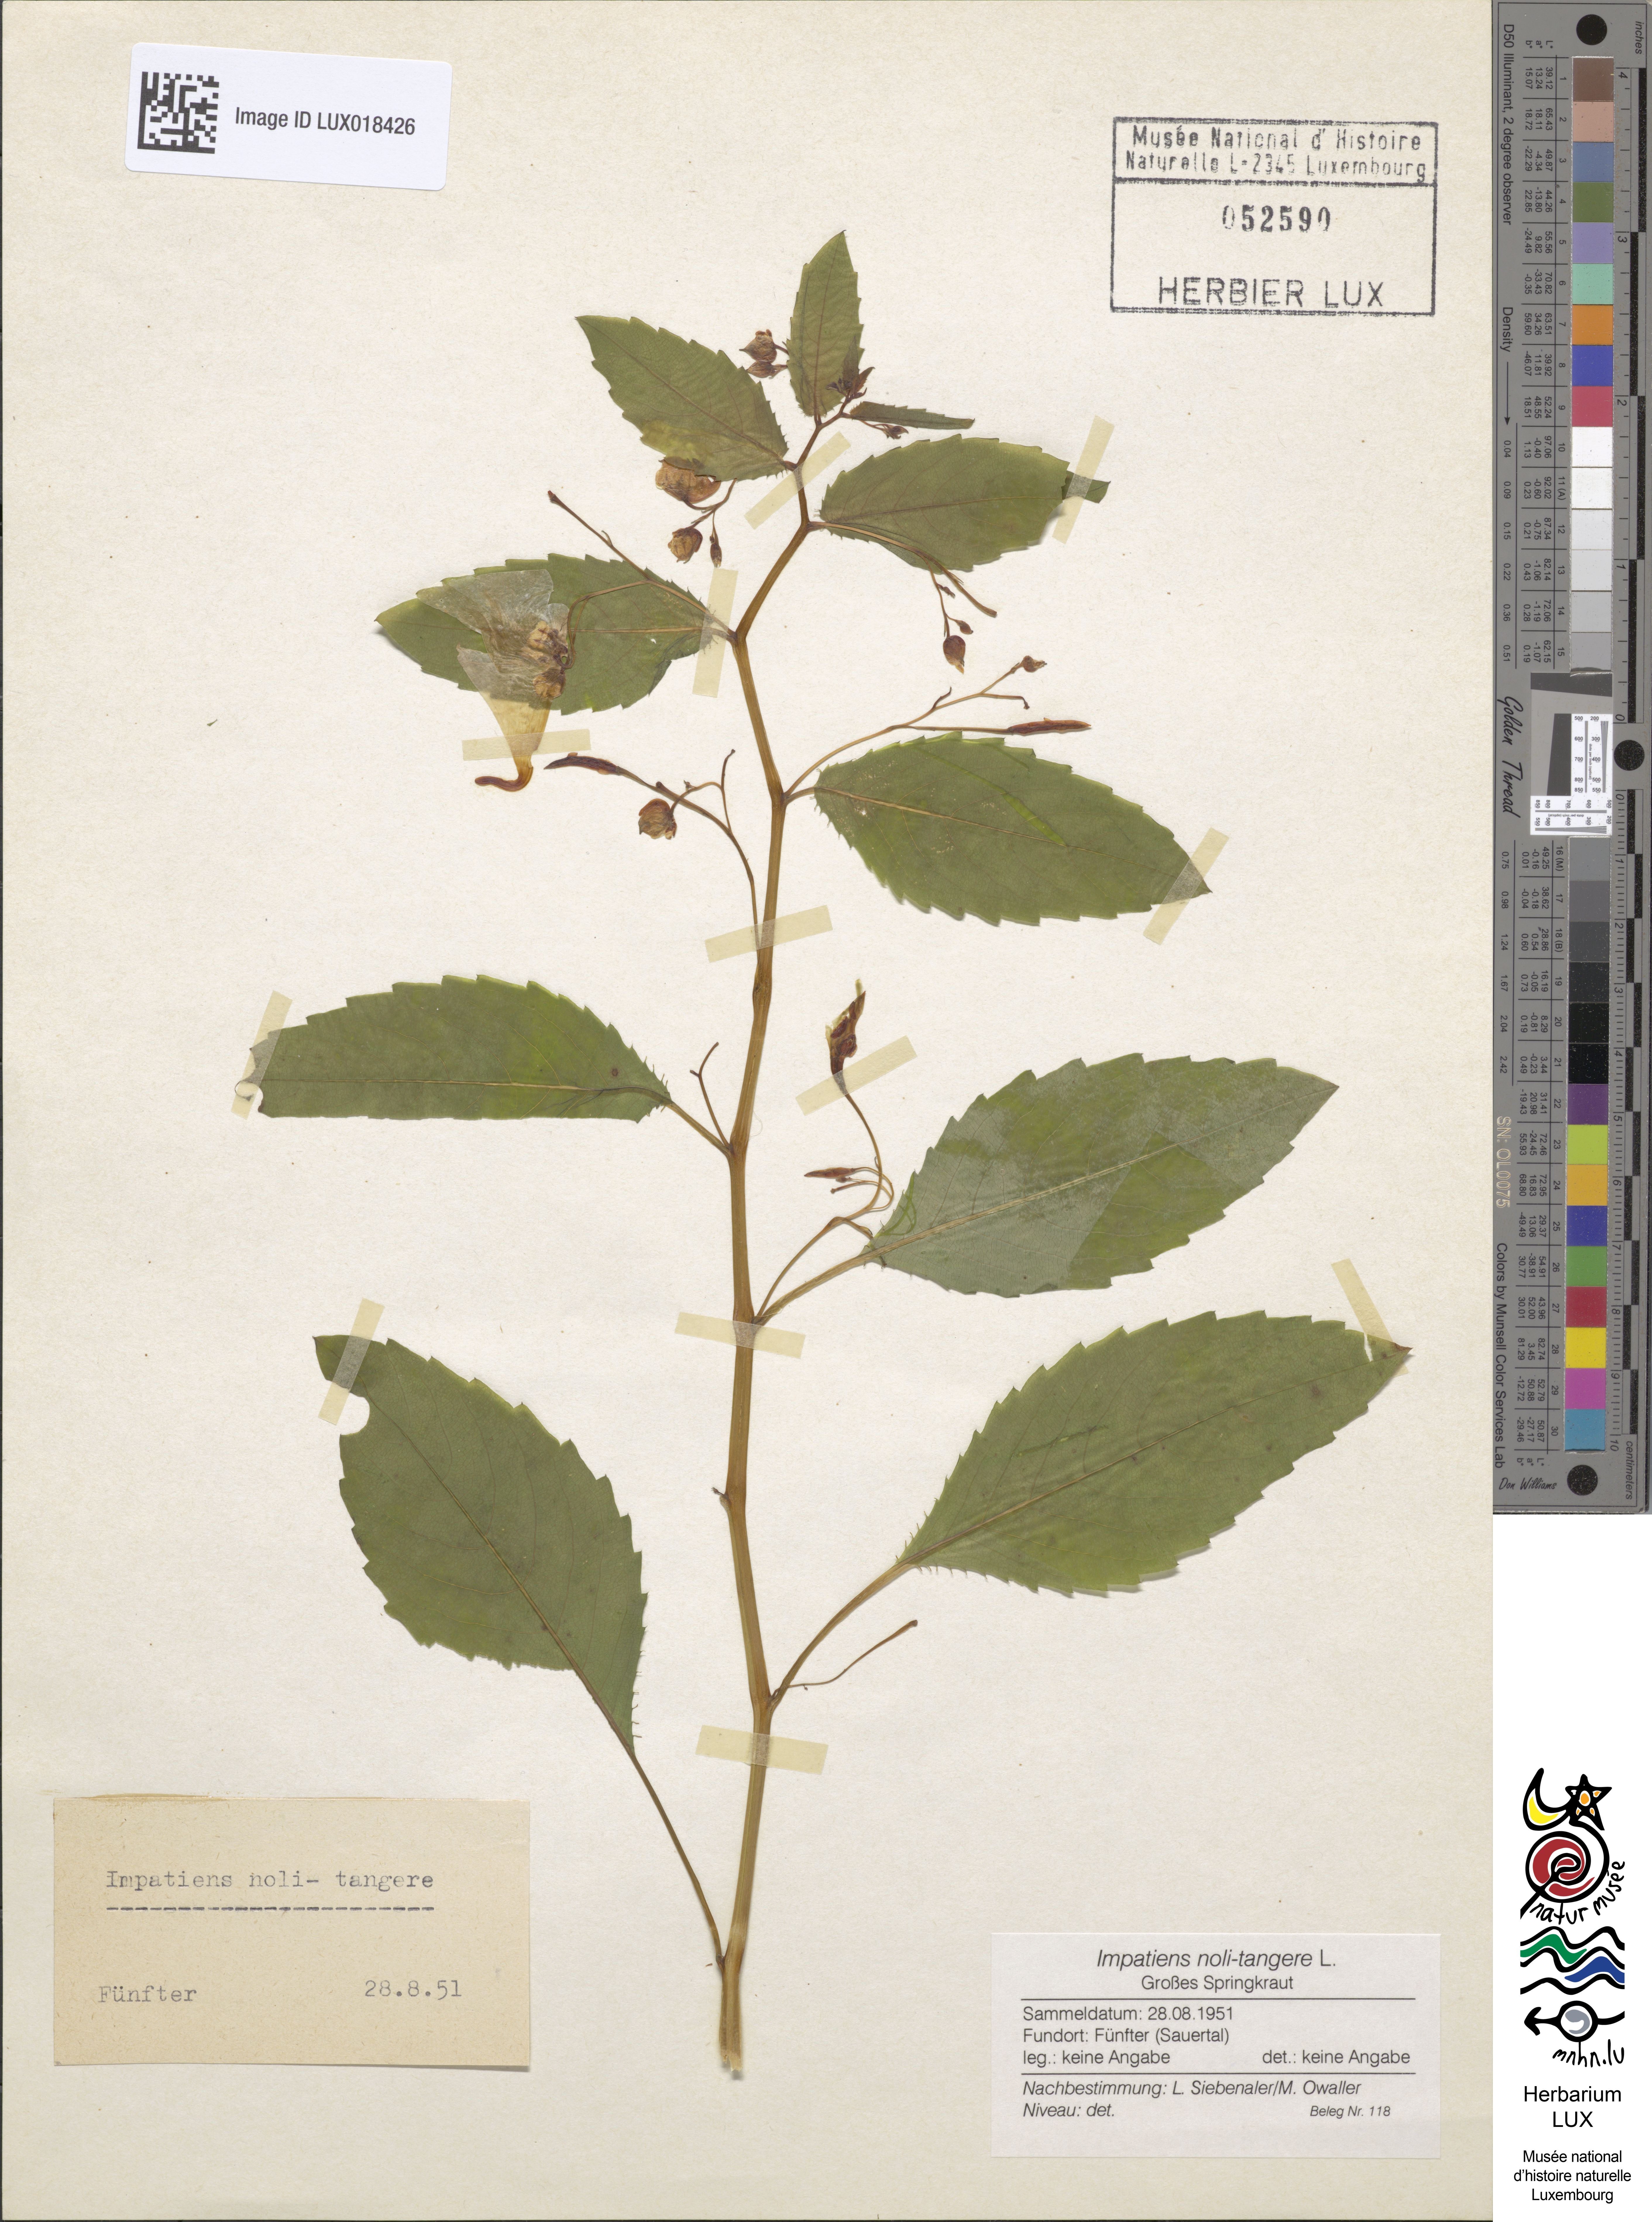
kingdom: Plantae
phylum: Tracheophyta
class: Magnoliopsida
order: Ericales
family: Balsaminaceae
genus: Impatiens
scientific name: Impatiens noli-tangere
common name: Touch-me-not balsam
